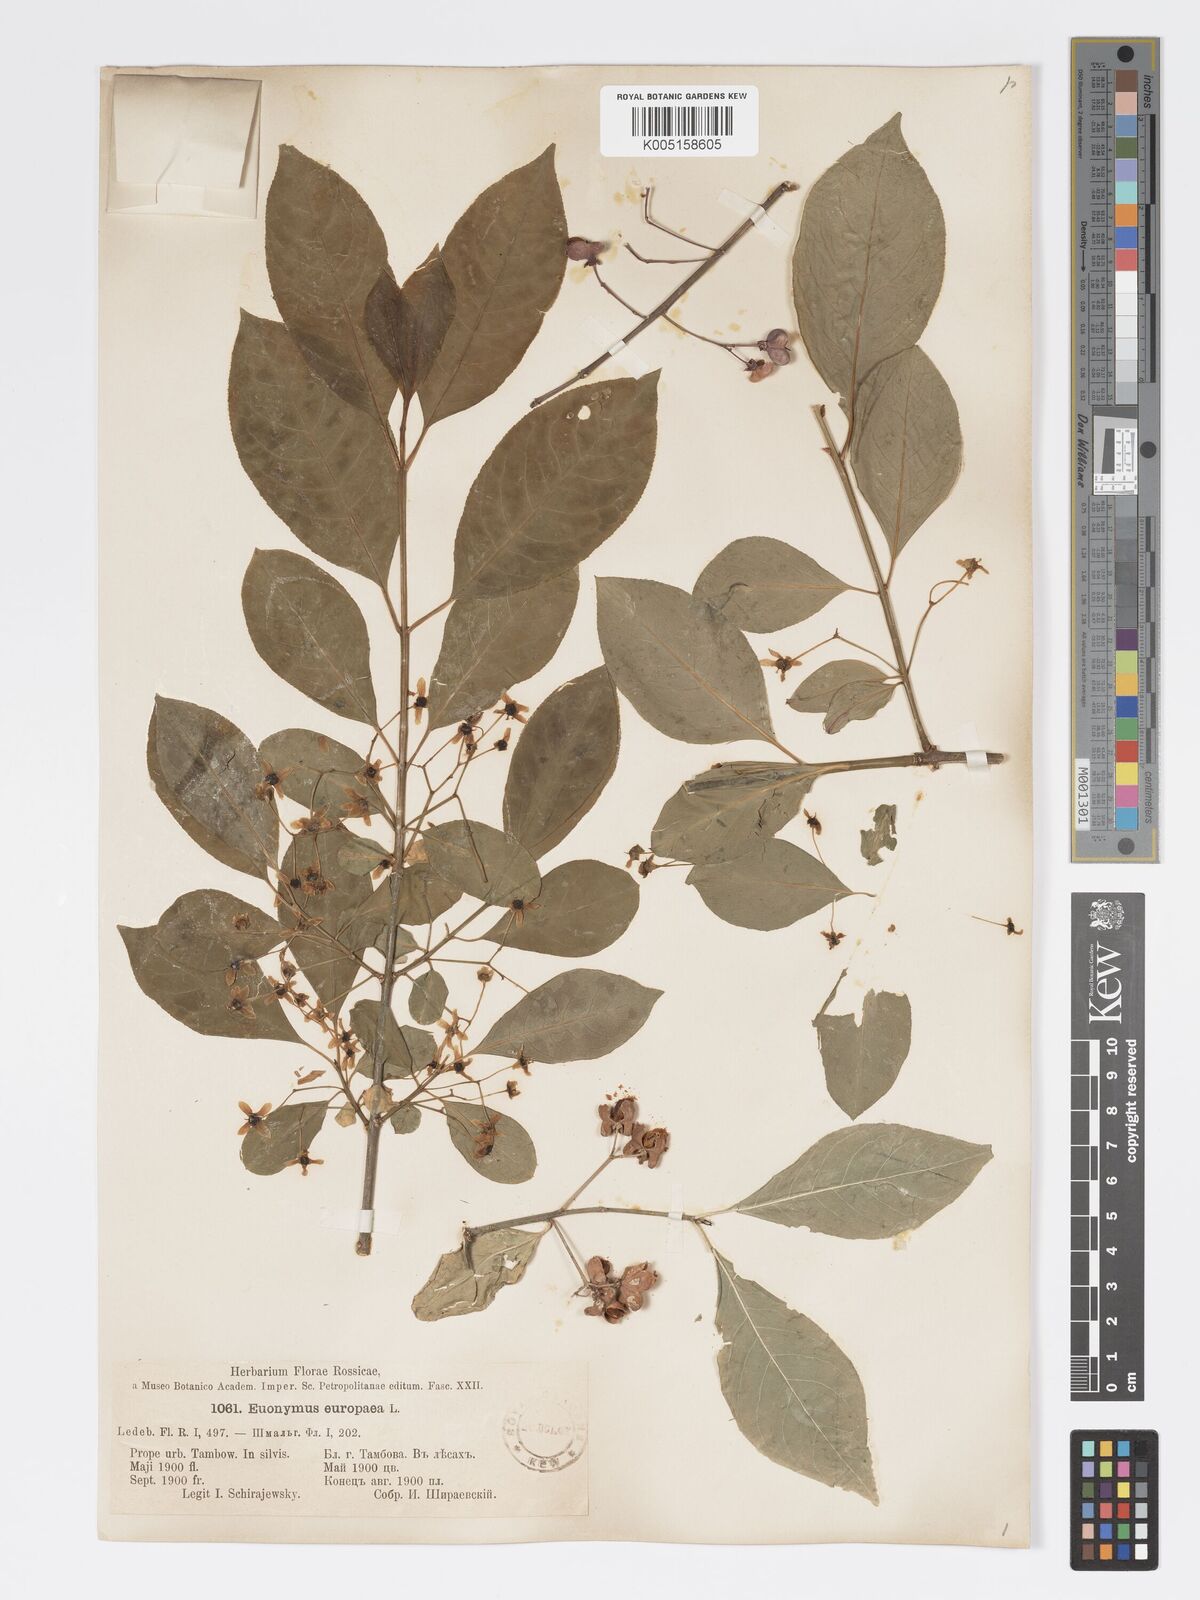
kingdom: Plantae
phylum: Tracheophyta
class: Magnoliopsida
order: Celastrales
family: Celastraceae
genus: Euonymus
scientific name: Euonymus europaeus
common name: Spindle
